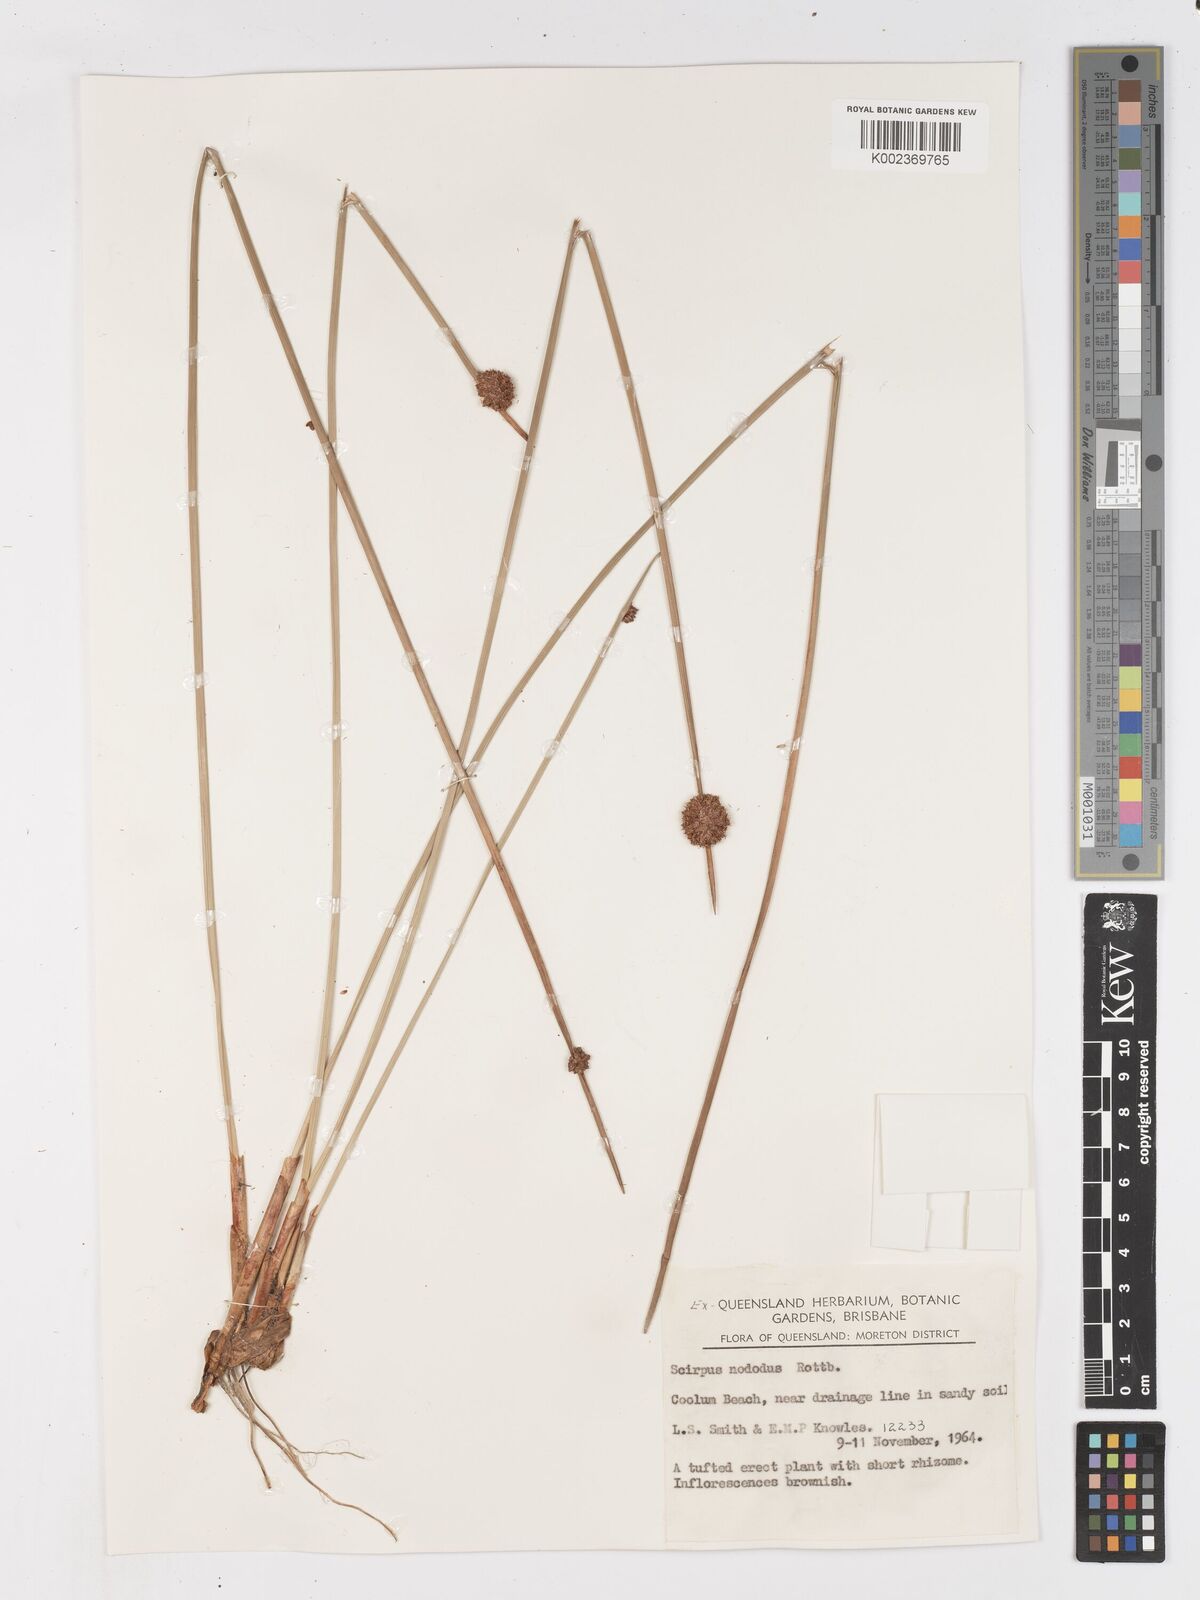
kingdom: Plantae
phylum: Tracheophyta
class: Liliopsida
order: Poales
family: Cyperaceae
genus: Ficinia
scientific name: Ficinia nodosa
